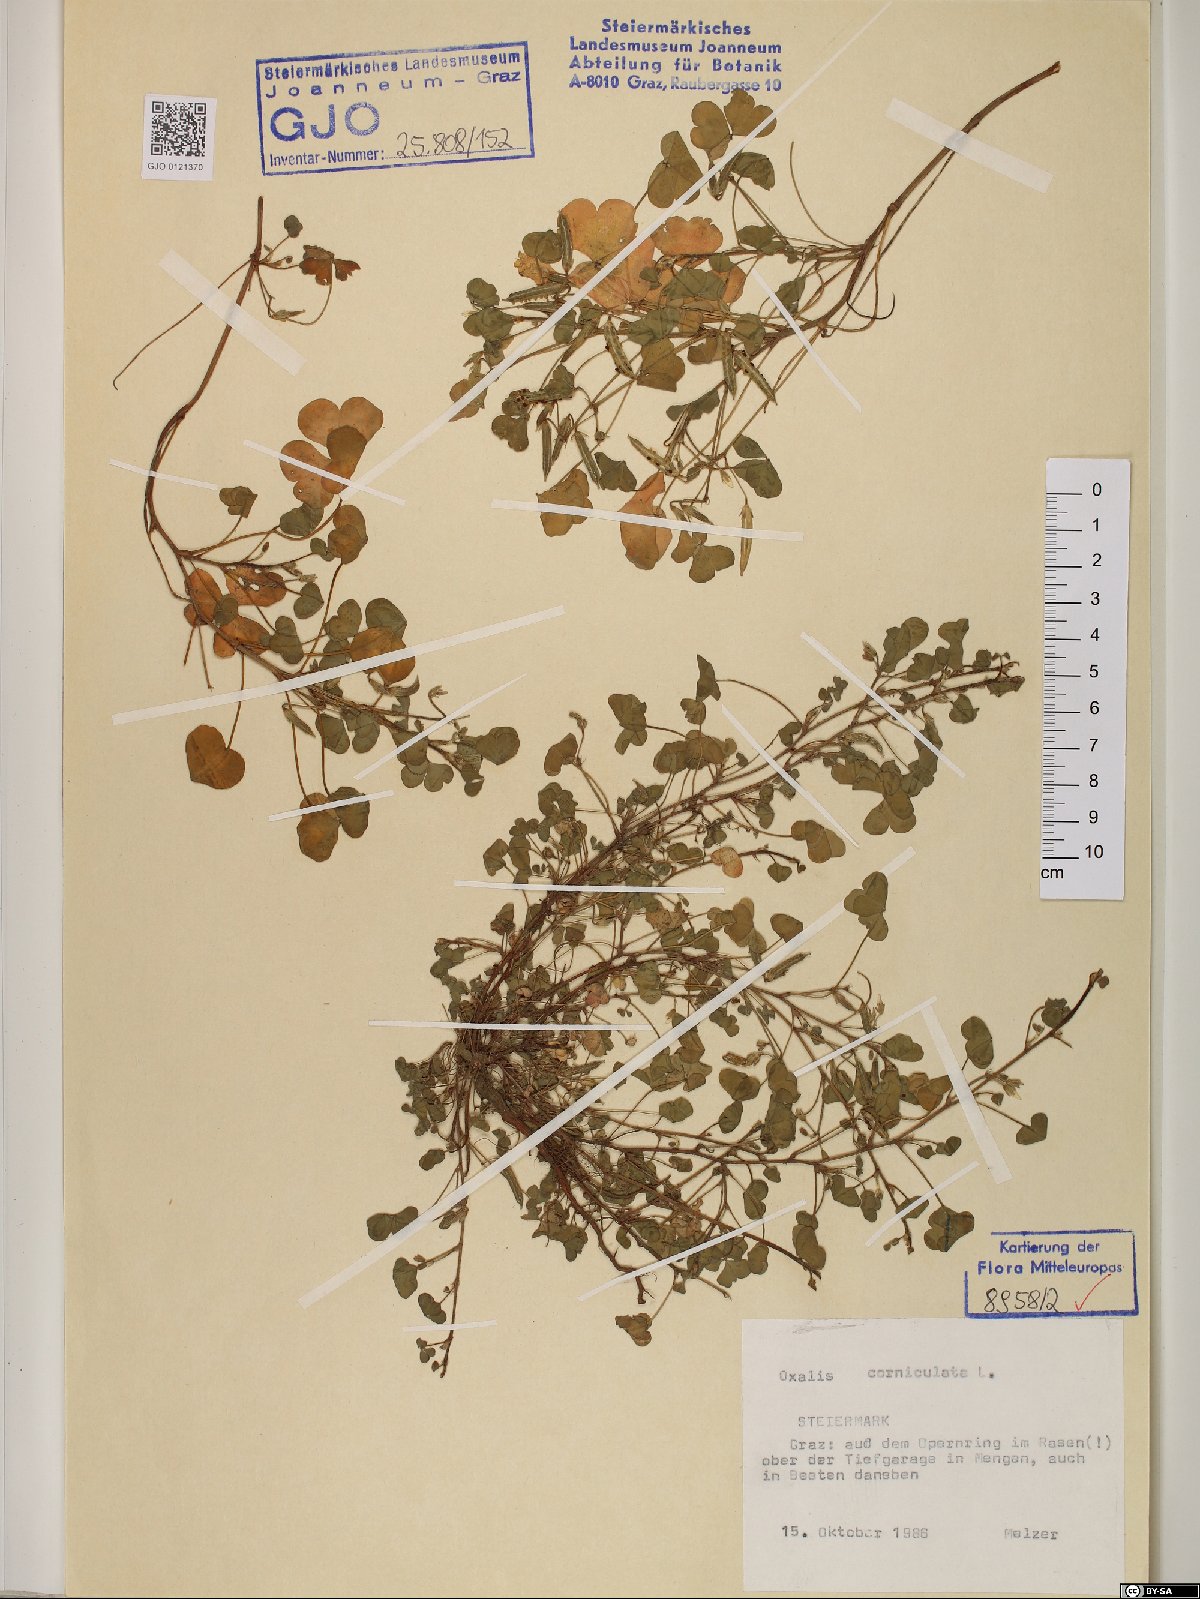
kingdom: Plantae
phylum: Tracheophyta
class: Magnoliopsida
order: Oxalidales
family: Oxalidaceae
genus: Oxalis
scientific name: Oxalis corniculata
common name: Procumbent yellow-sorrel
